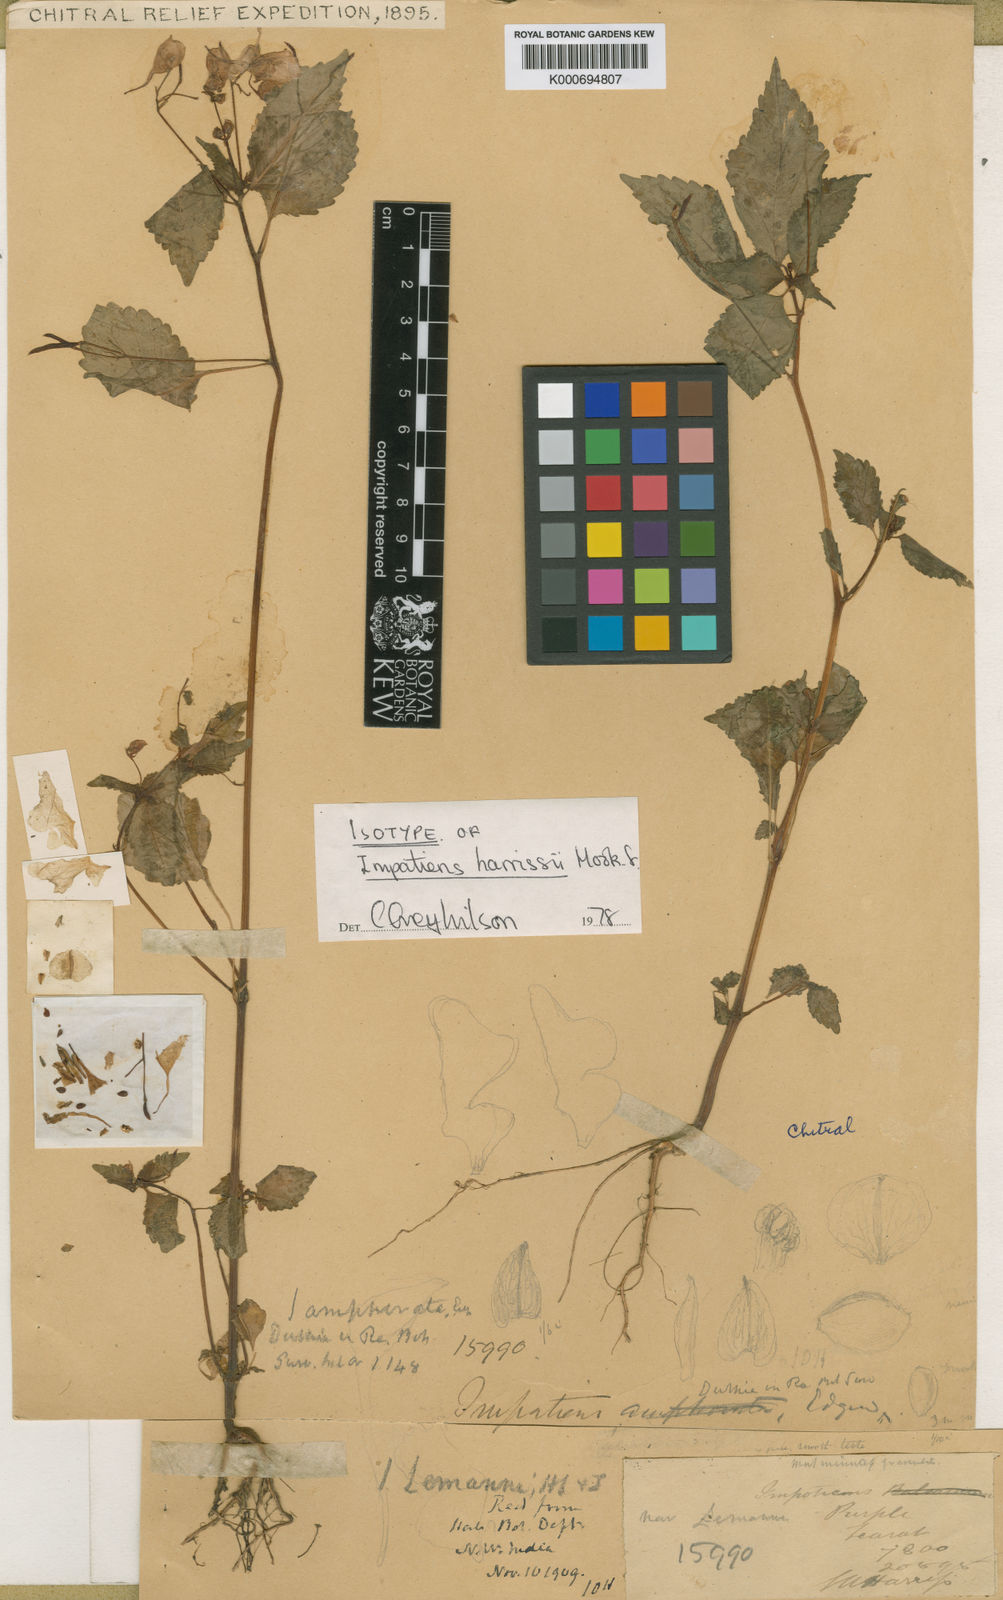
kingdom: Plantae
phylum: Tracheophyta
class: Magnoliopsida
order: Ericales
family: Balsaminaceae
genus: Impatiens
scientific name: Impatiens lemannii
